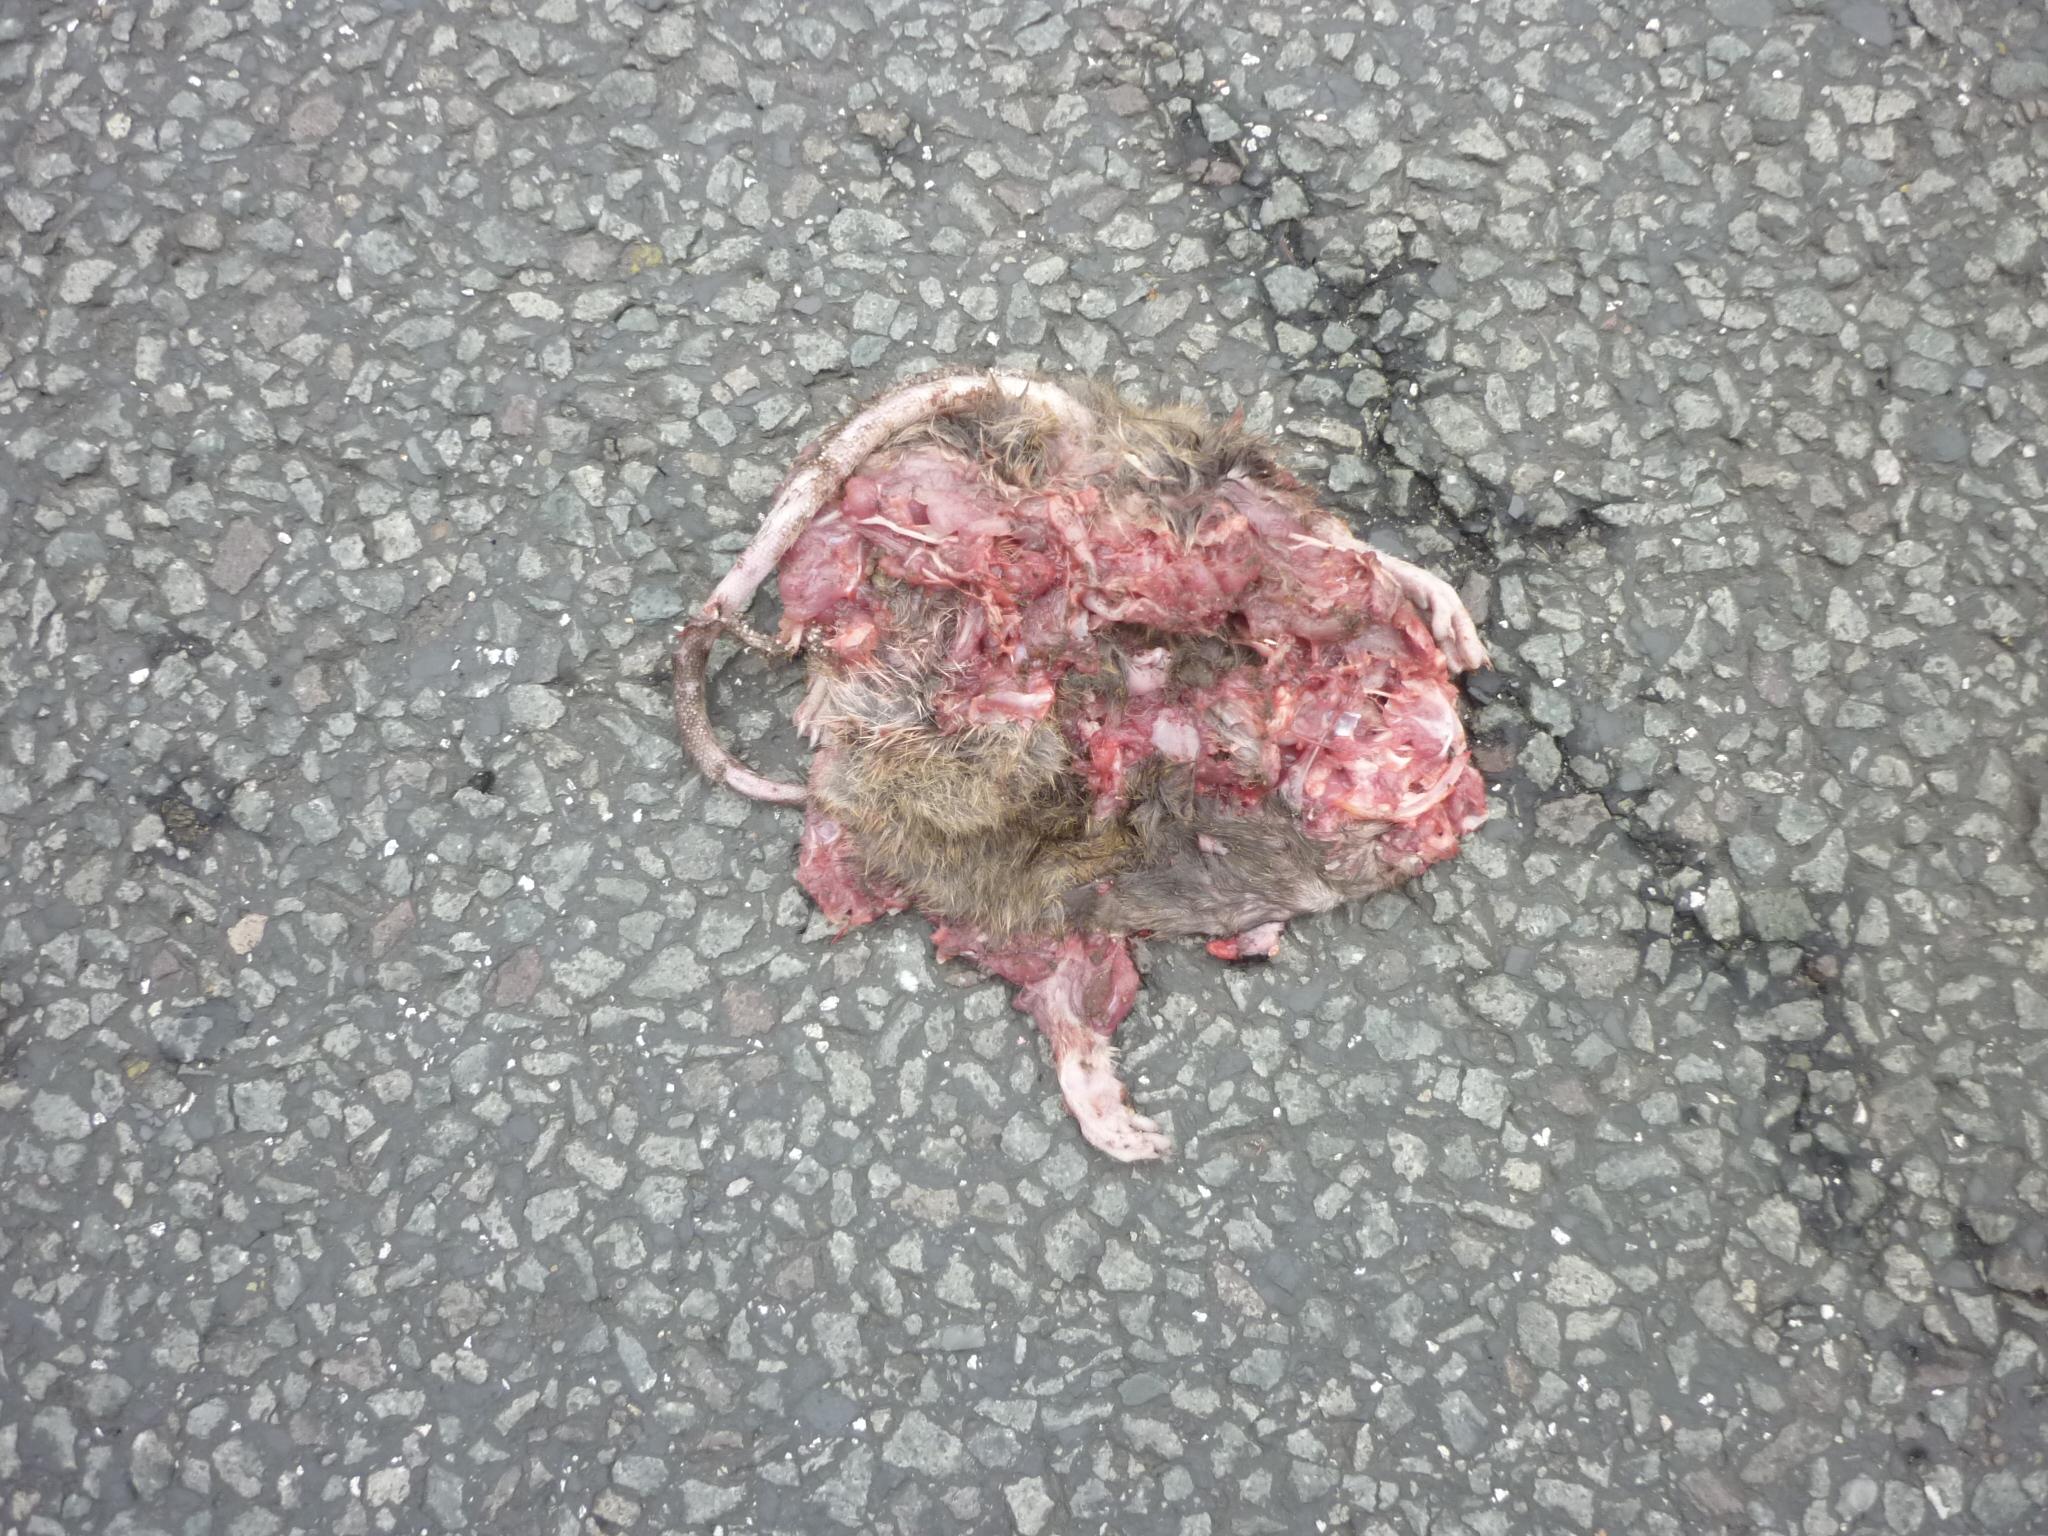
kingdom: Animalia
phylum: Chordata
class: Mammalia
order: Rodentia
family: Muridae
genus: Rattus
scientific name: Rattus norvegicus
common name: Brown rat
